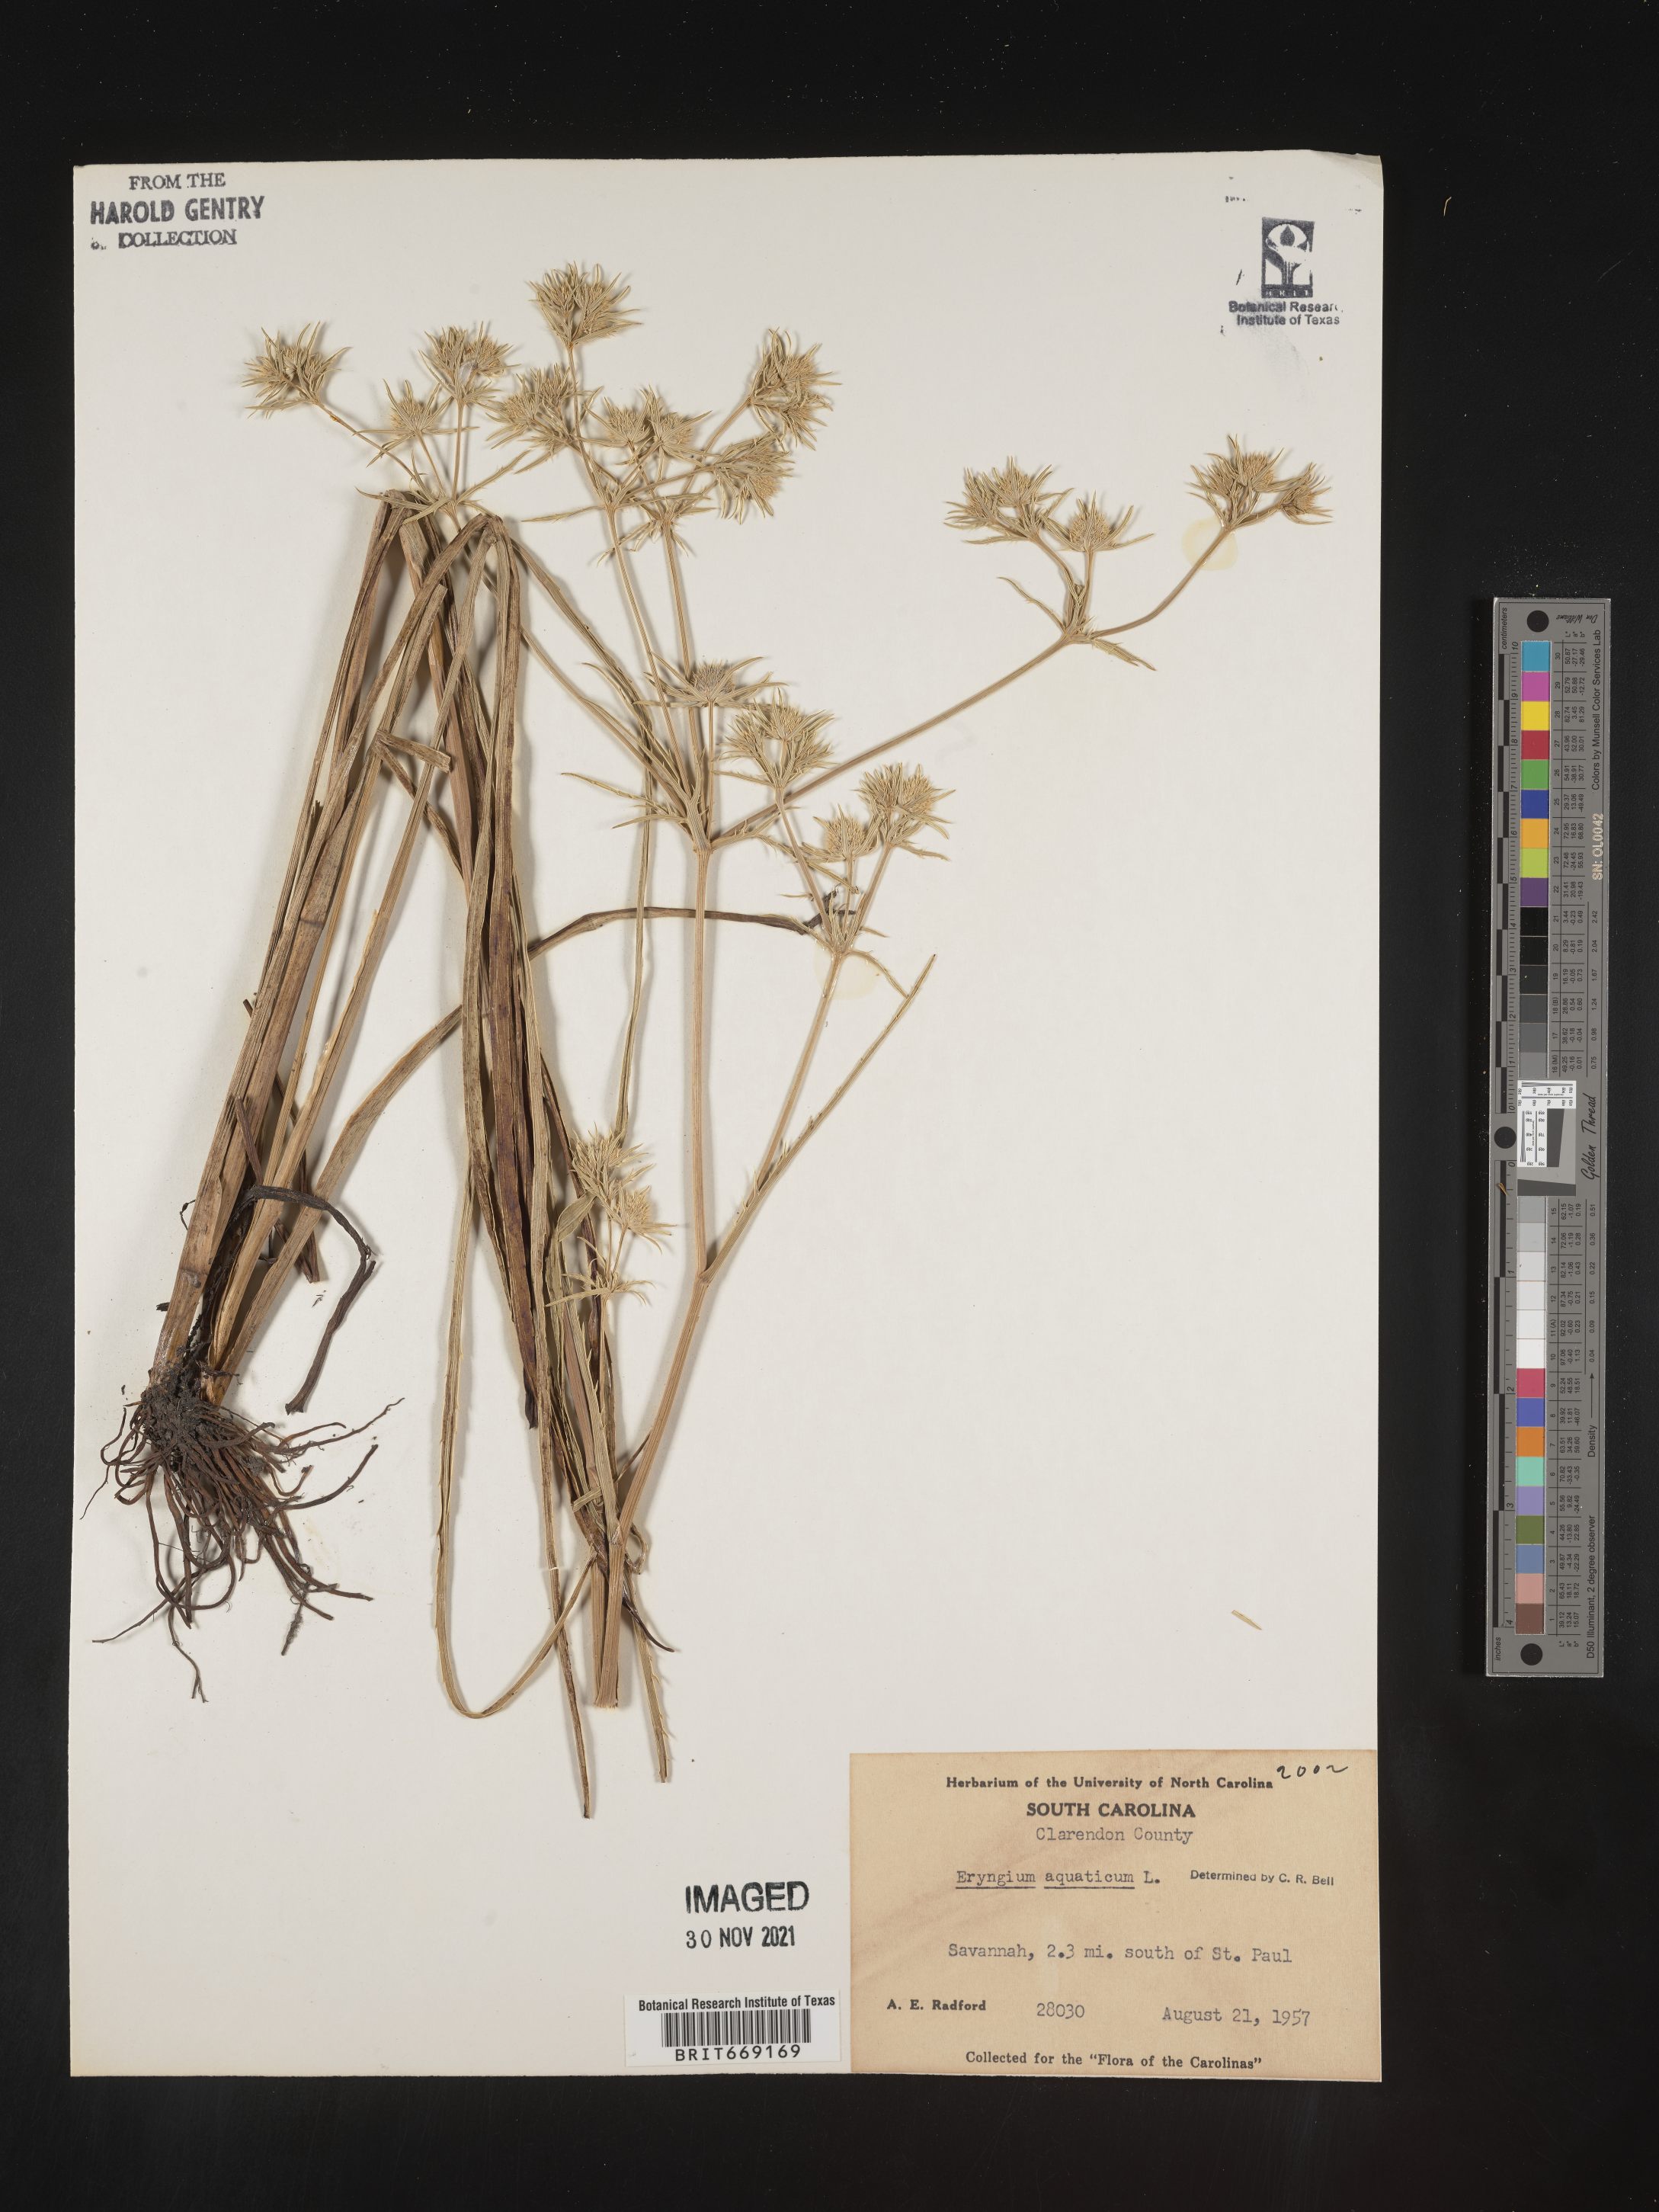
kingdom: Plantae
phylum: Tracheophyta
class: Magnoliopsida
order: Apiales
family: Apiaceae
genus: Eryngium
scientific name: Eryngium aquaticum
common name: Water eryngo
